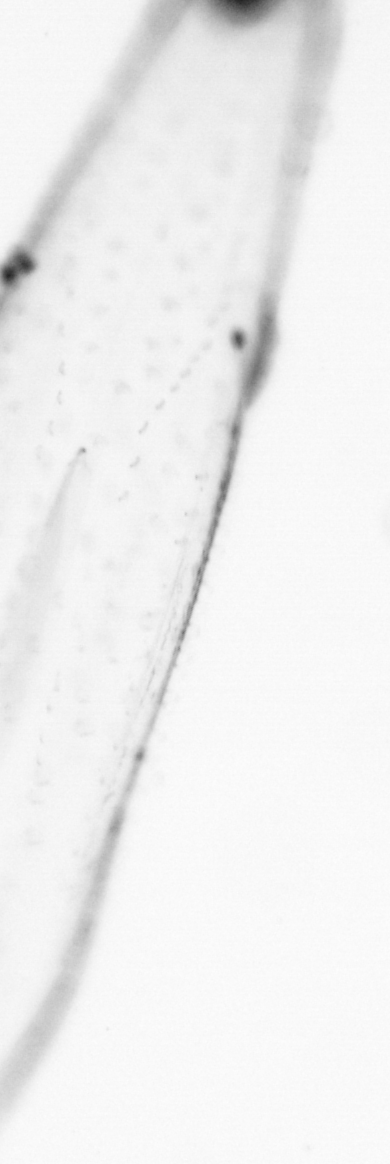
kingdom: Animalia
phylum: Chaetognatha
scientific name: Chaetognatha
